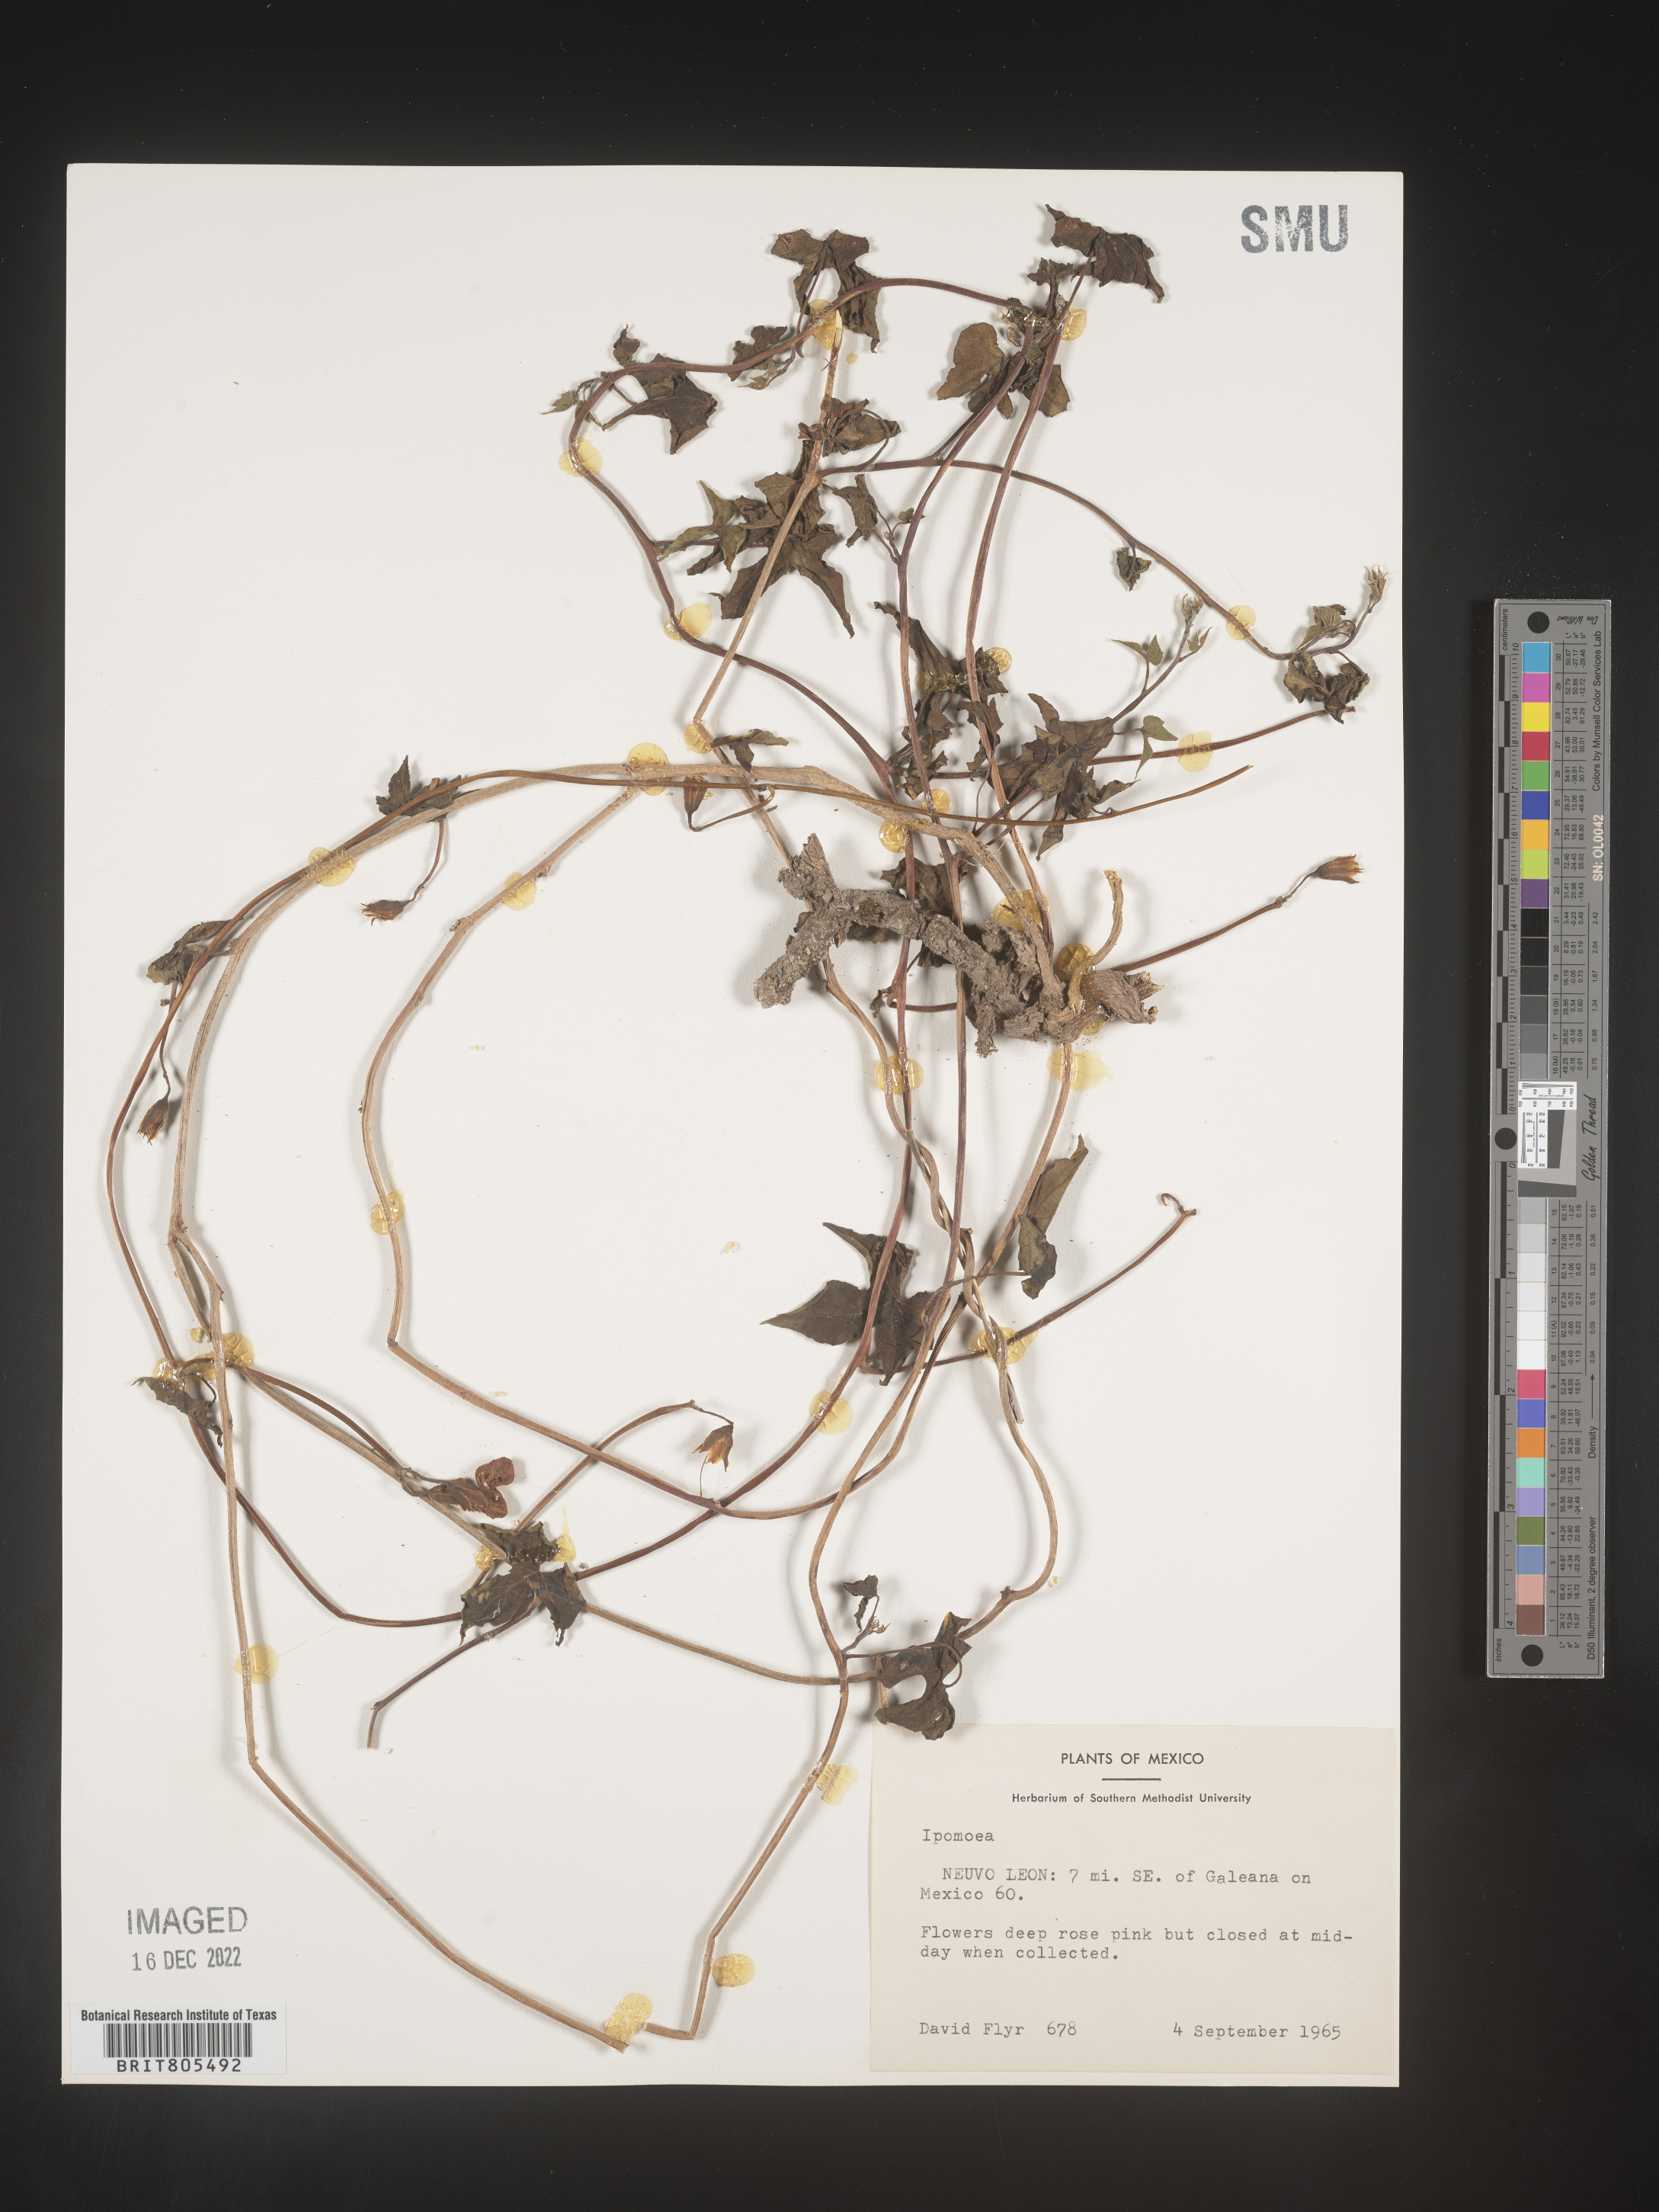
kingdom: Plantae
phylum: Tracheophyta
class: Magnoliopsida
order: Solanales
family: Convolvulaceae
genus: Ipomoea
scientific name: Ipomoea
